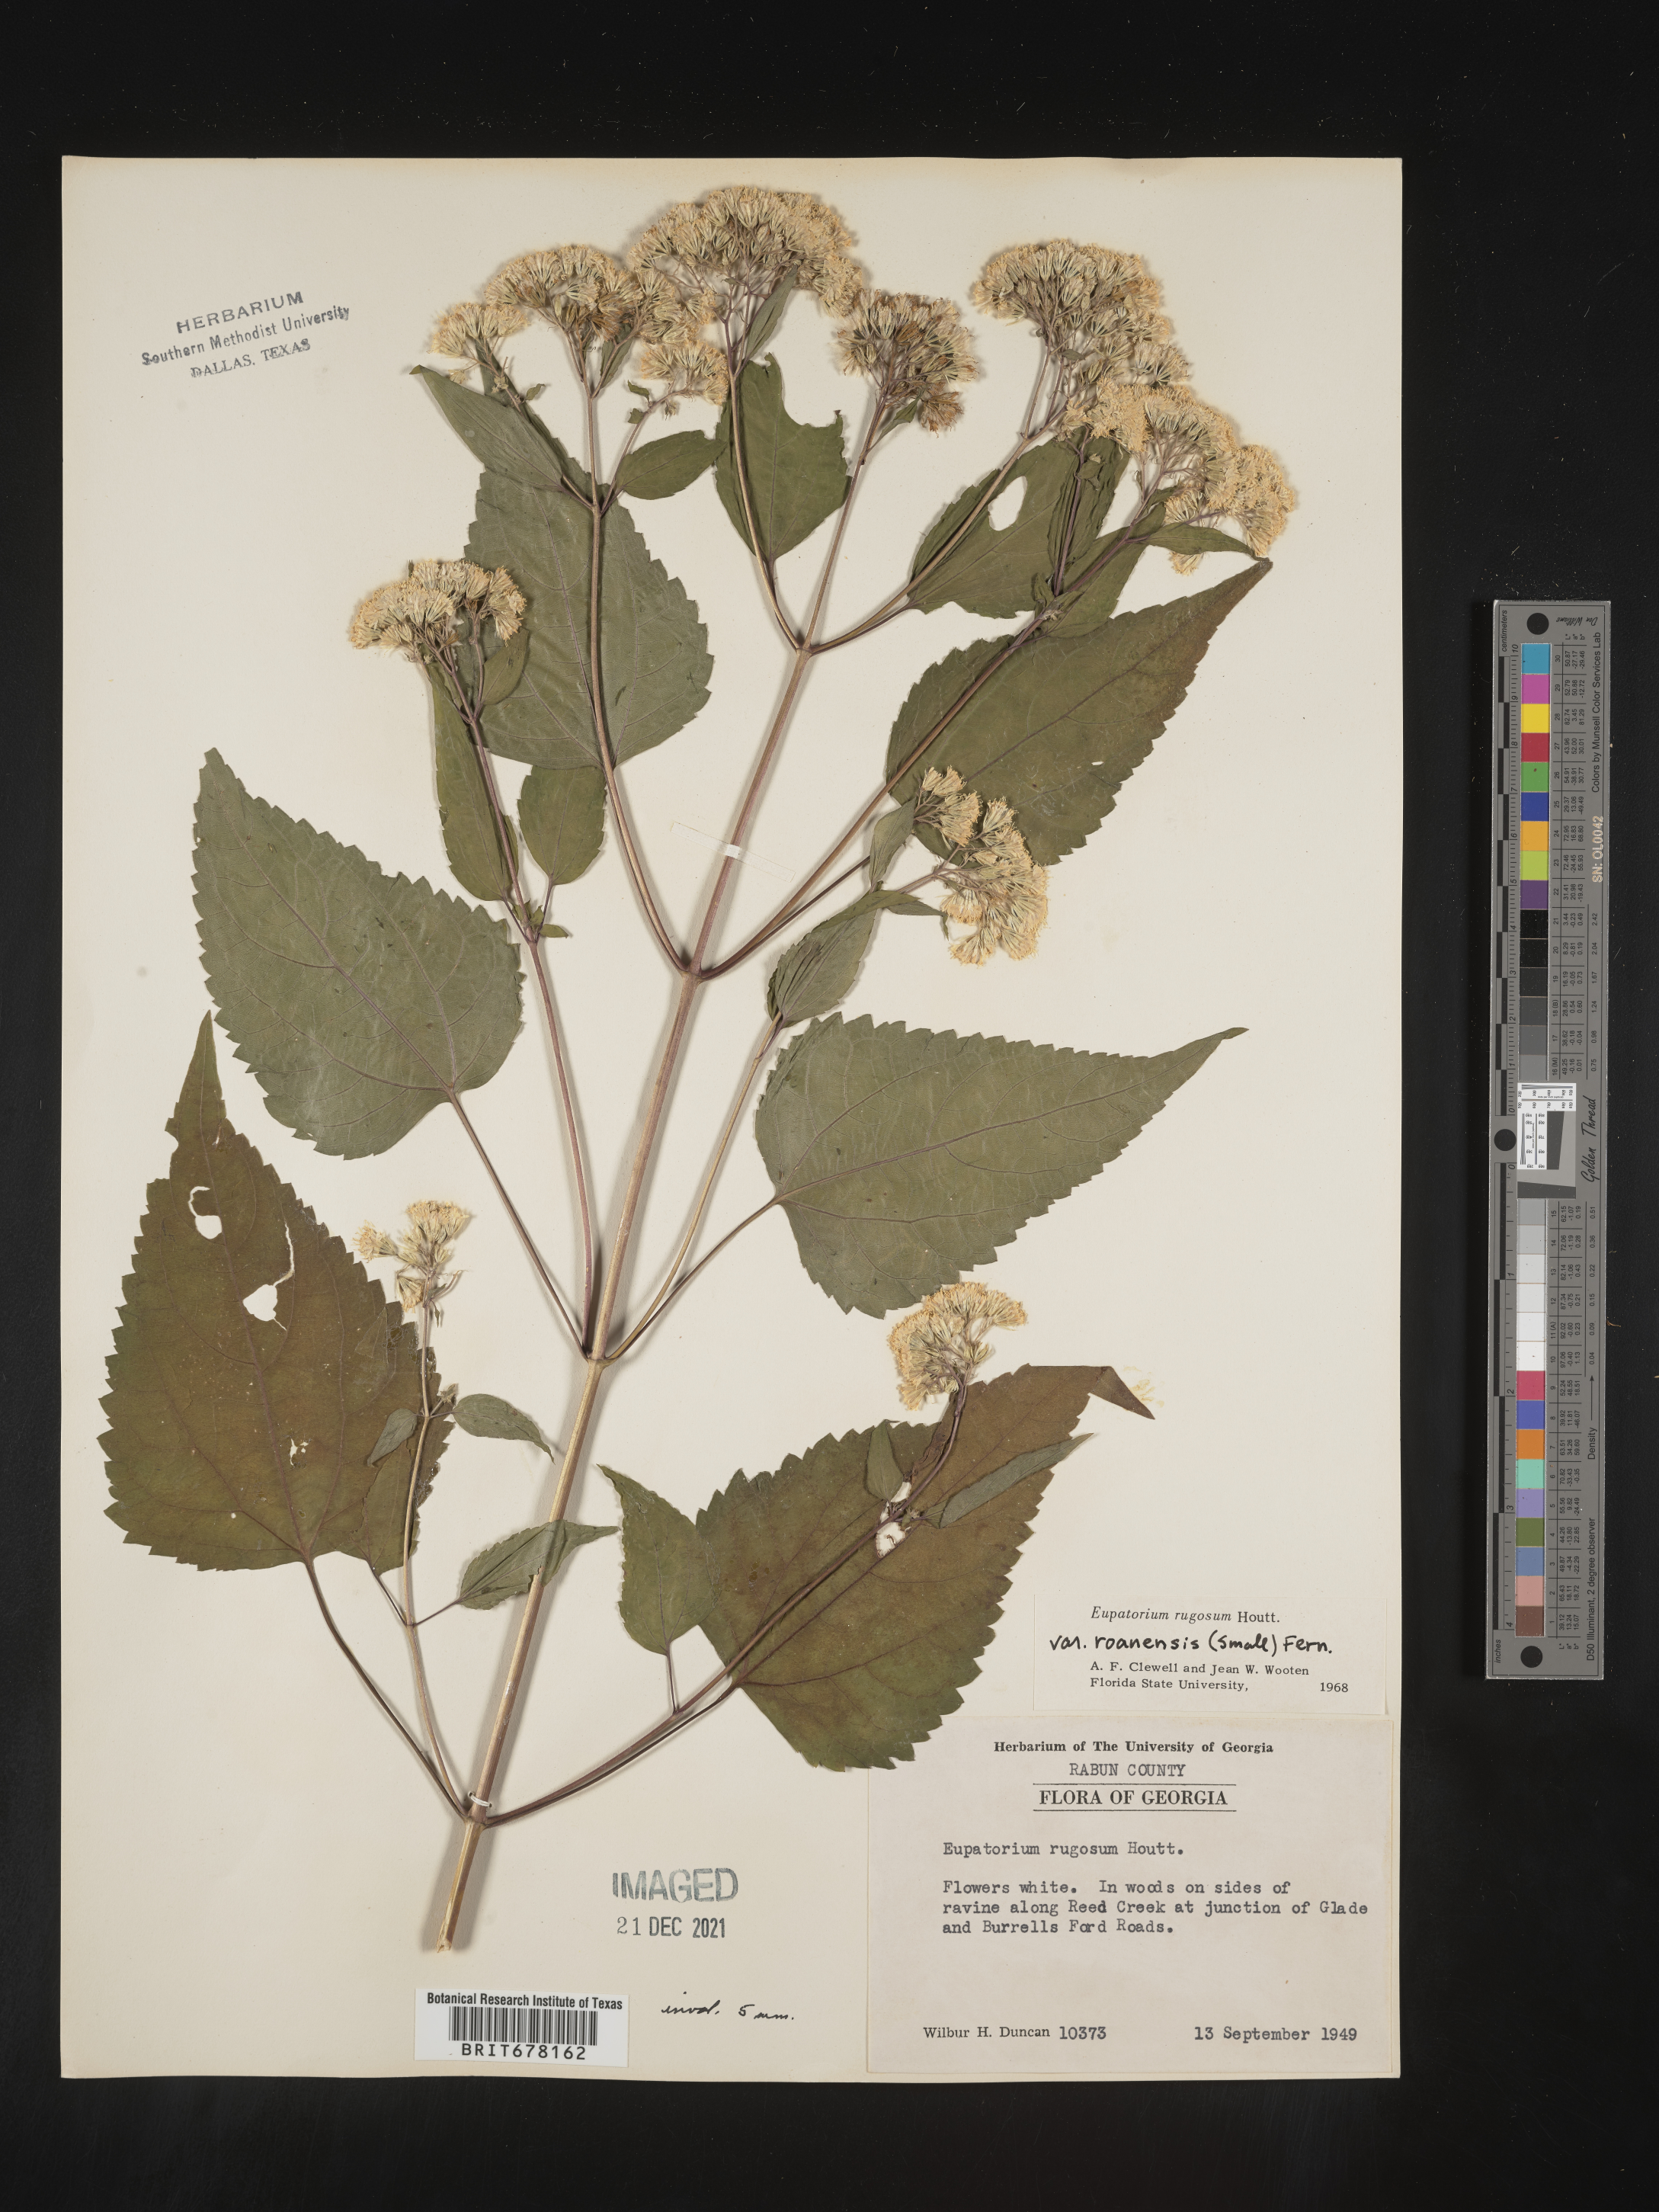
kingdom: Plantae
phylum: Tracheophyta
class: Magnoliopsida
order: Asterales
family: Asteraceae
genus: Eupatorium
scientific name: Eupatorium
